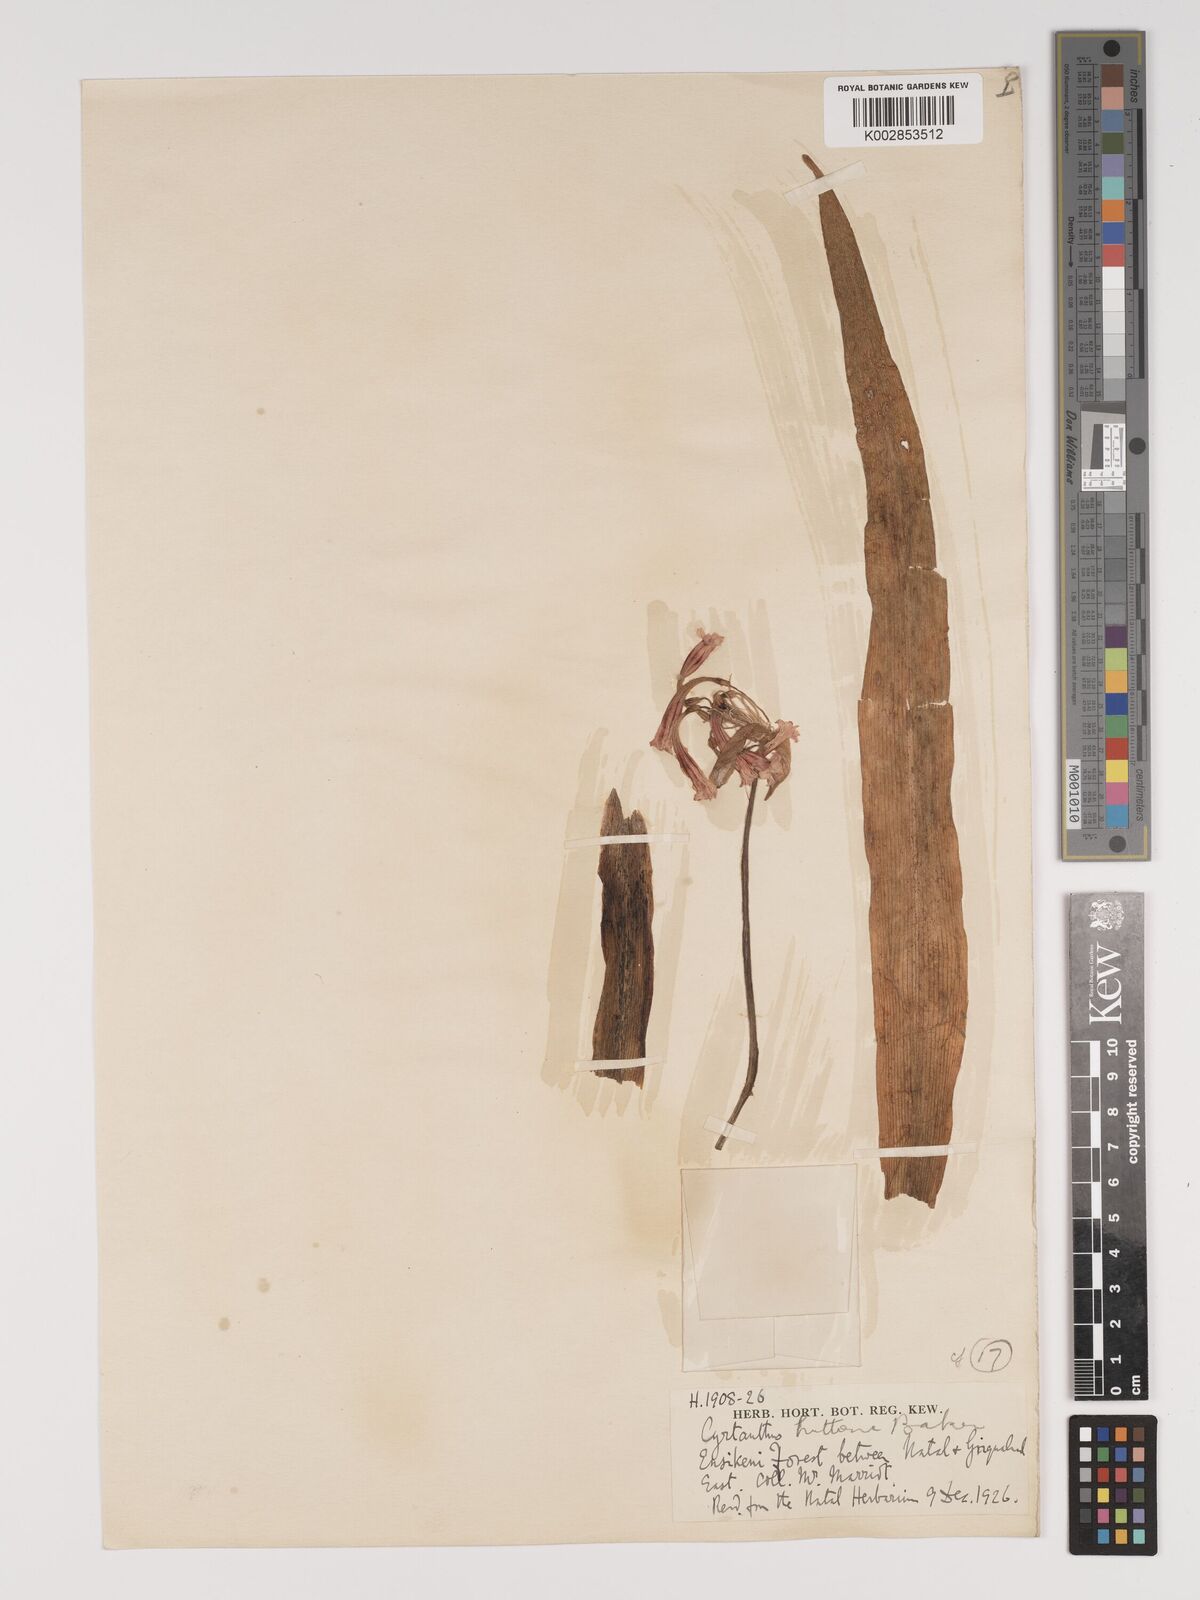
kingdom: Plantae
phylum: Tracheophyta
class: Liliopsida
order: Asparagales
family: Amaryllidaceae
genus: Cyrtanthus
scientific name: Cyrtanthus huttonii
